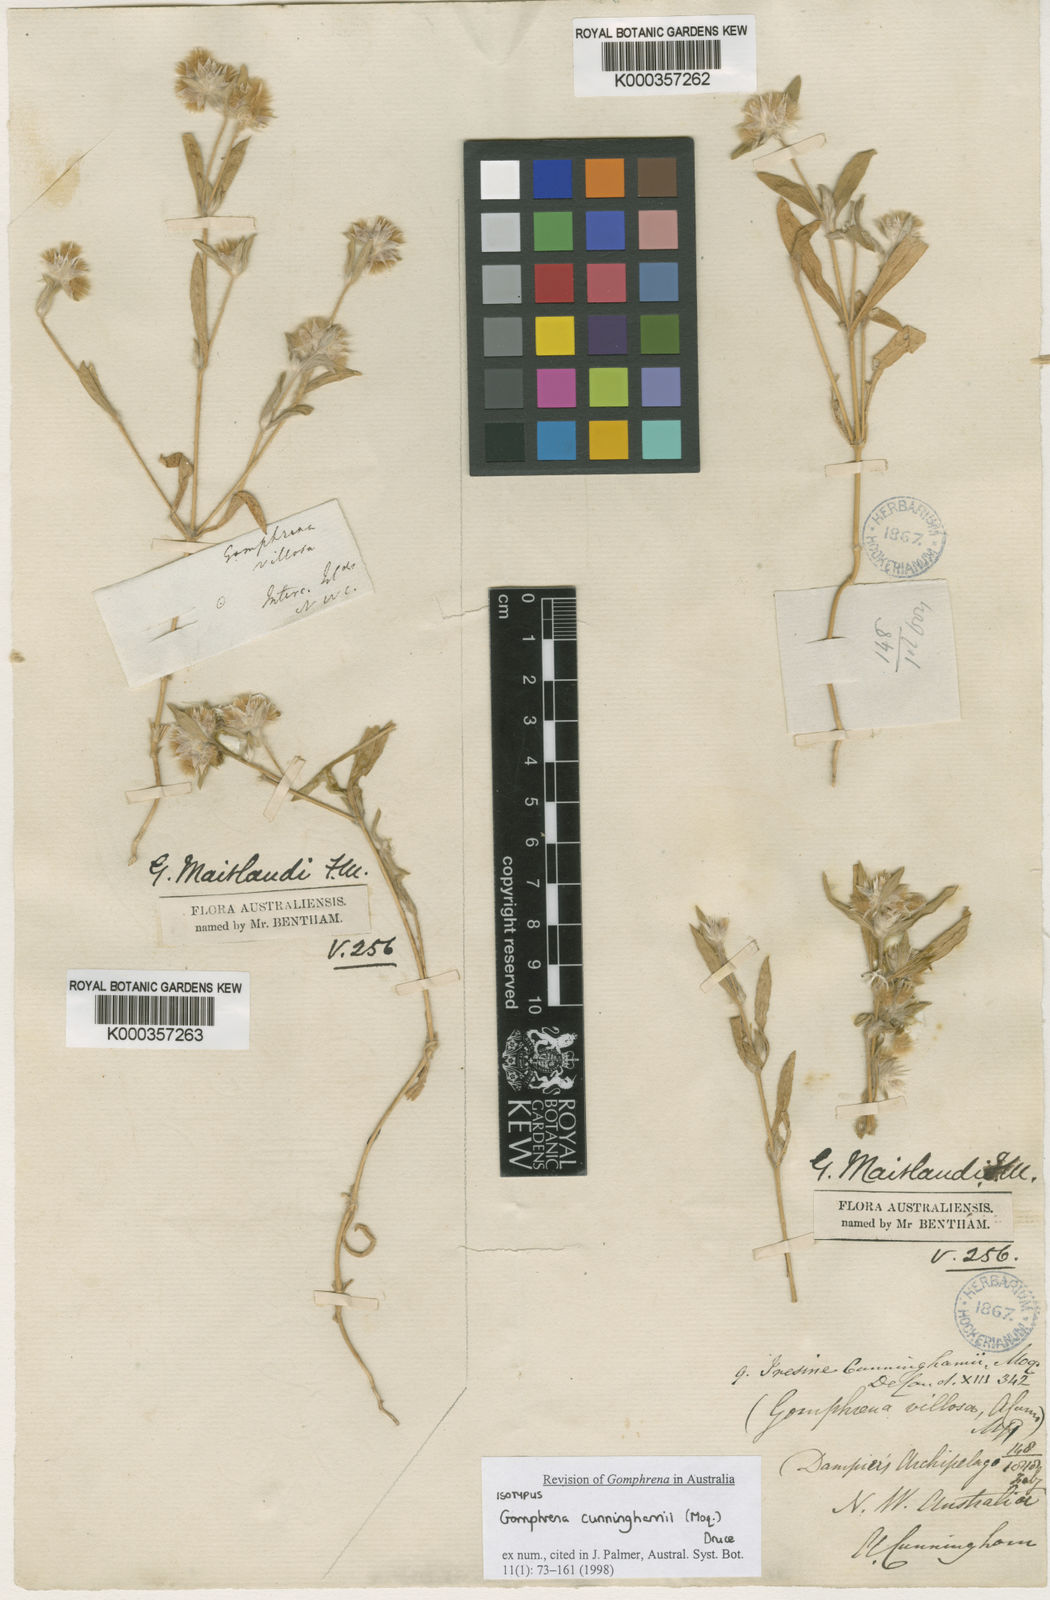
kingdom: Plantae
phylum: Tracheophyta
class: Magnoliopsida
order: Caryophyllales
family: Amaranthaceae
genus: Gomphrena
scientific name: Gomphrena cunninghamii
